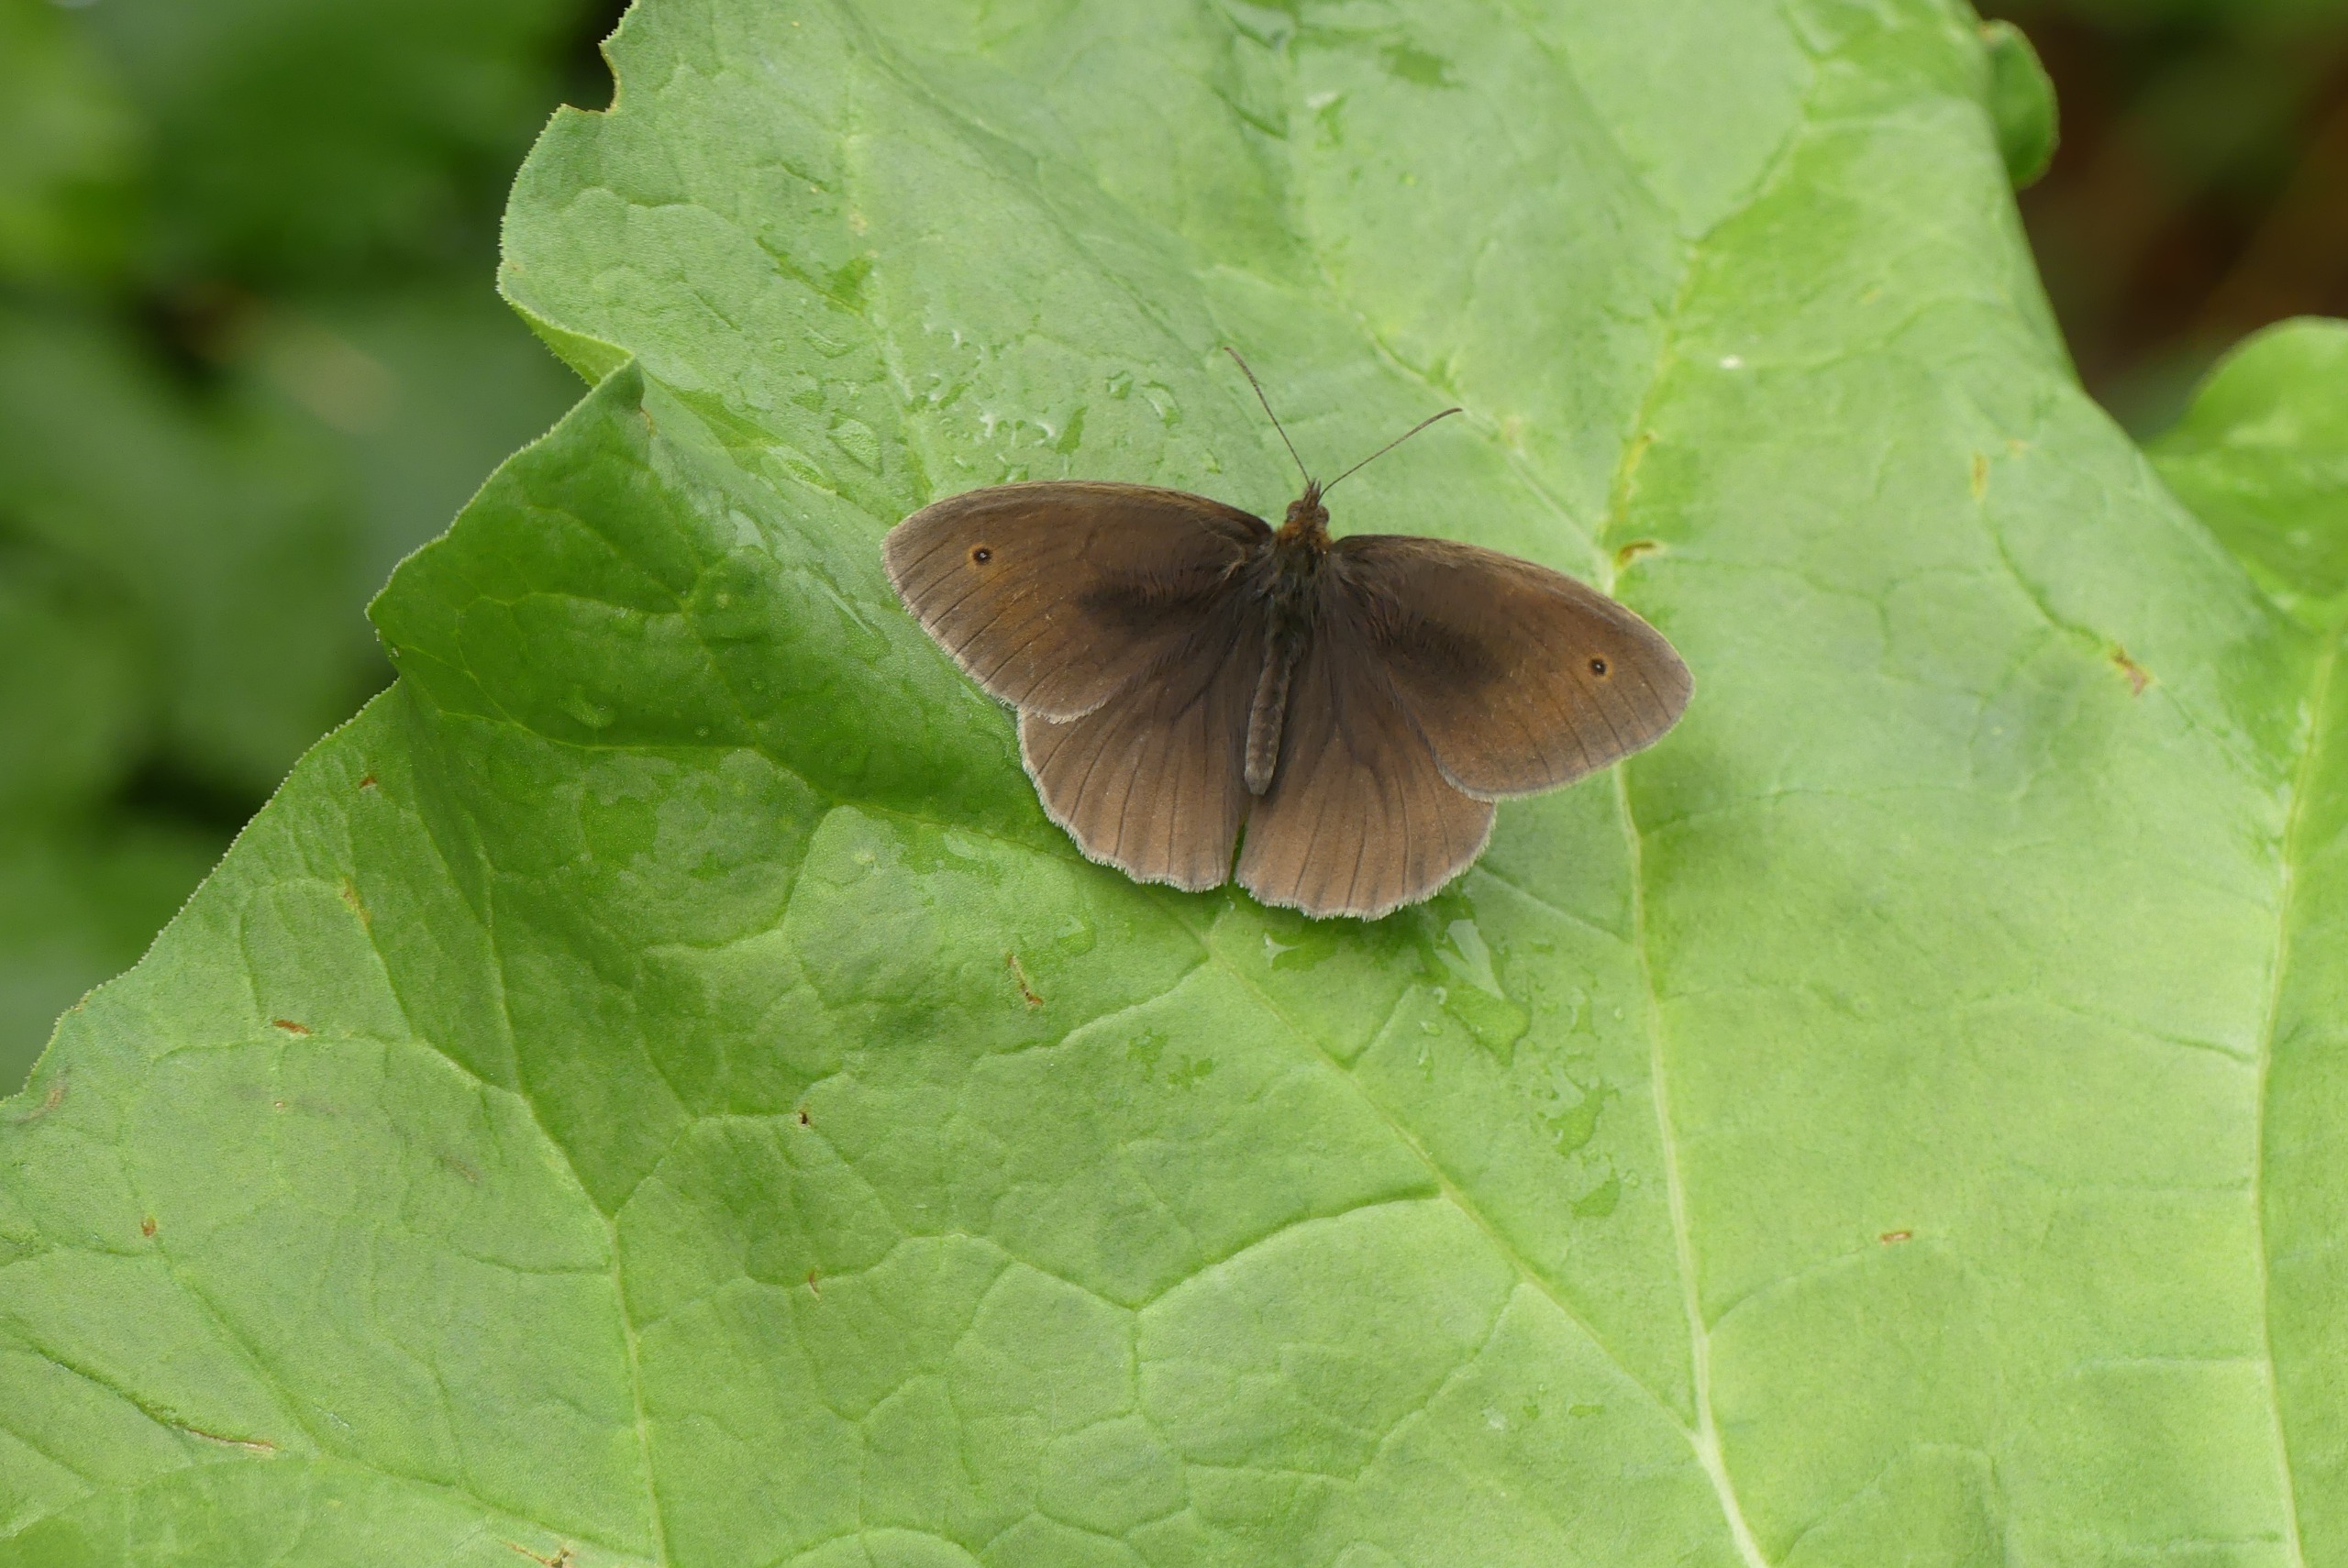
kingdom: Animalia
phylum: Arthropoda
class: Insecta
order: Lepidoptera
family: Nymphalidae
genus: Maniola
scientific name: Maniola jurtina
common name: Græsrandøje
